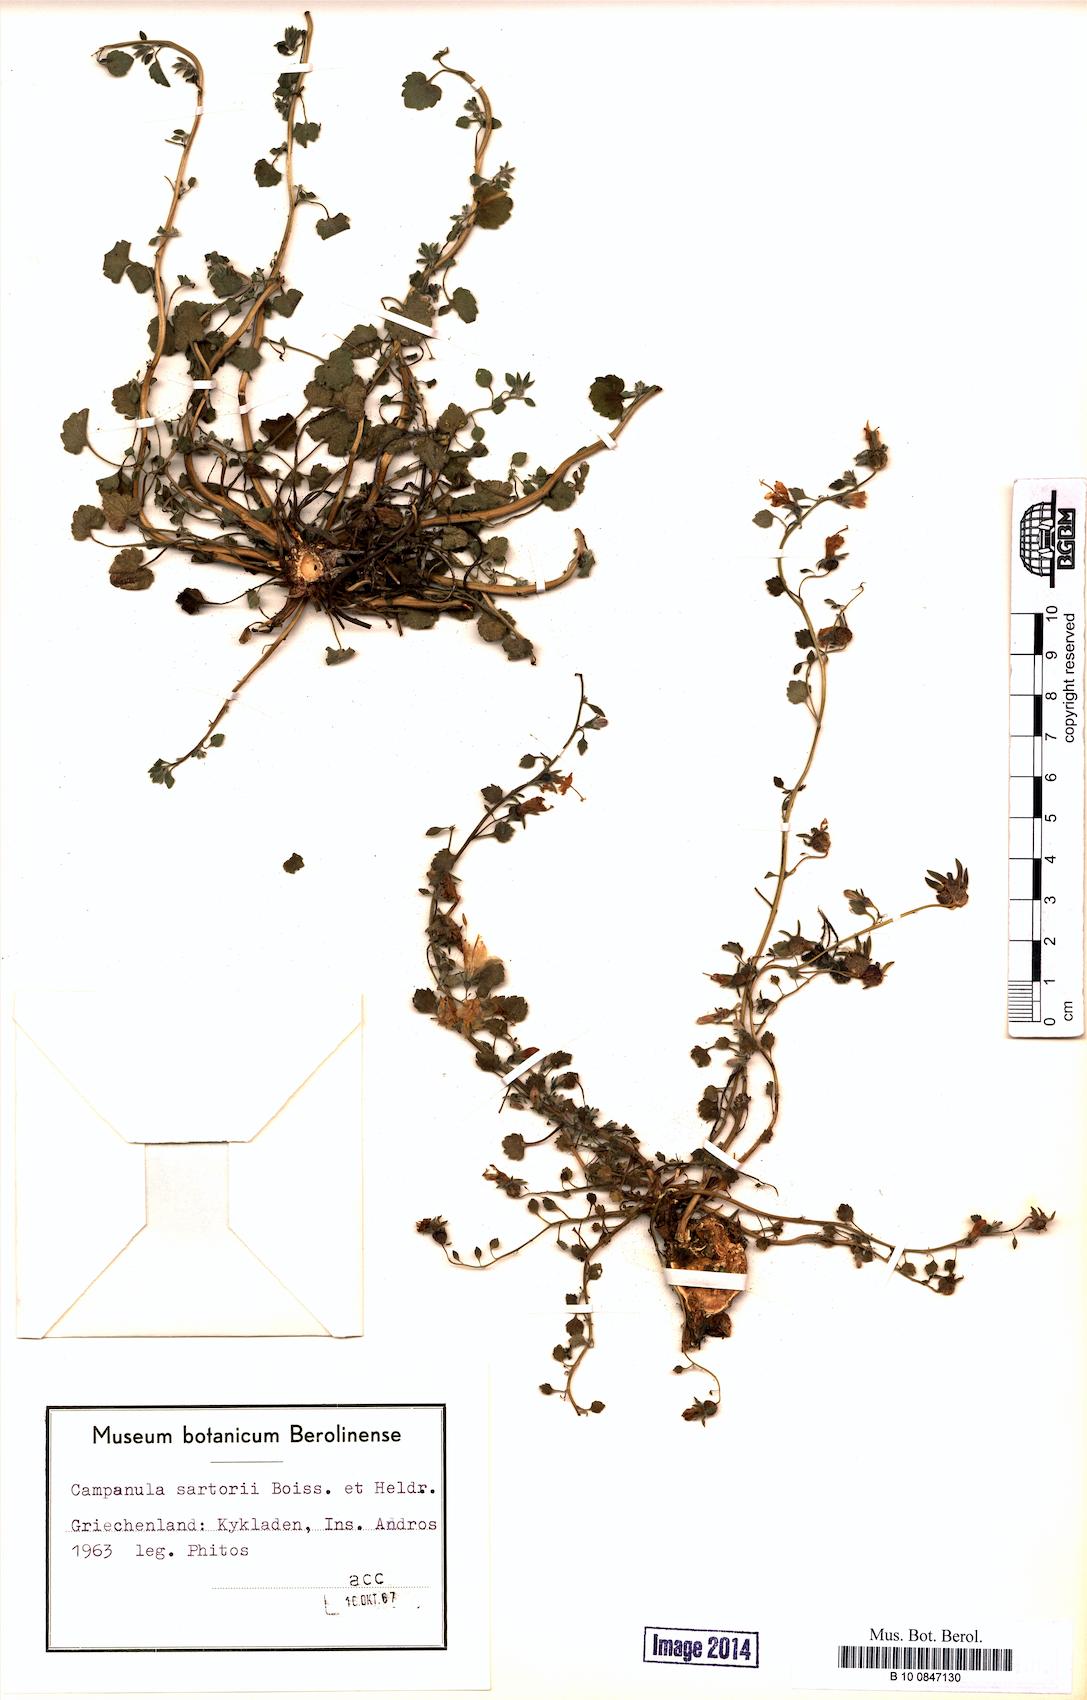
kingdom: Plantae
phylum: Tracheophyta
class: Magnoliopsida
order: Asterales
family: Campanulaceae
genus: Campanula
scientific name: Campanula sartorii
